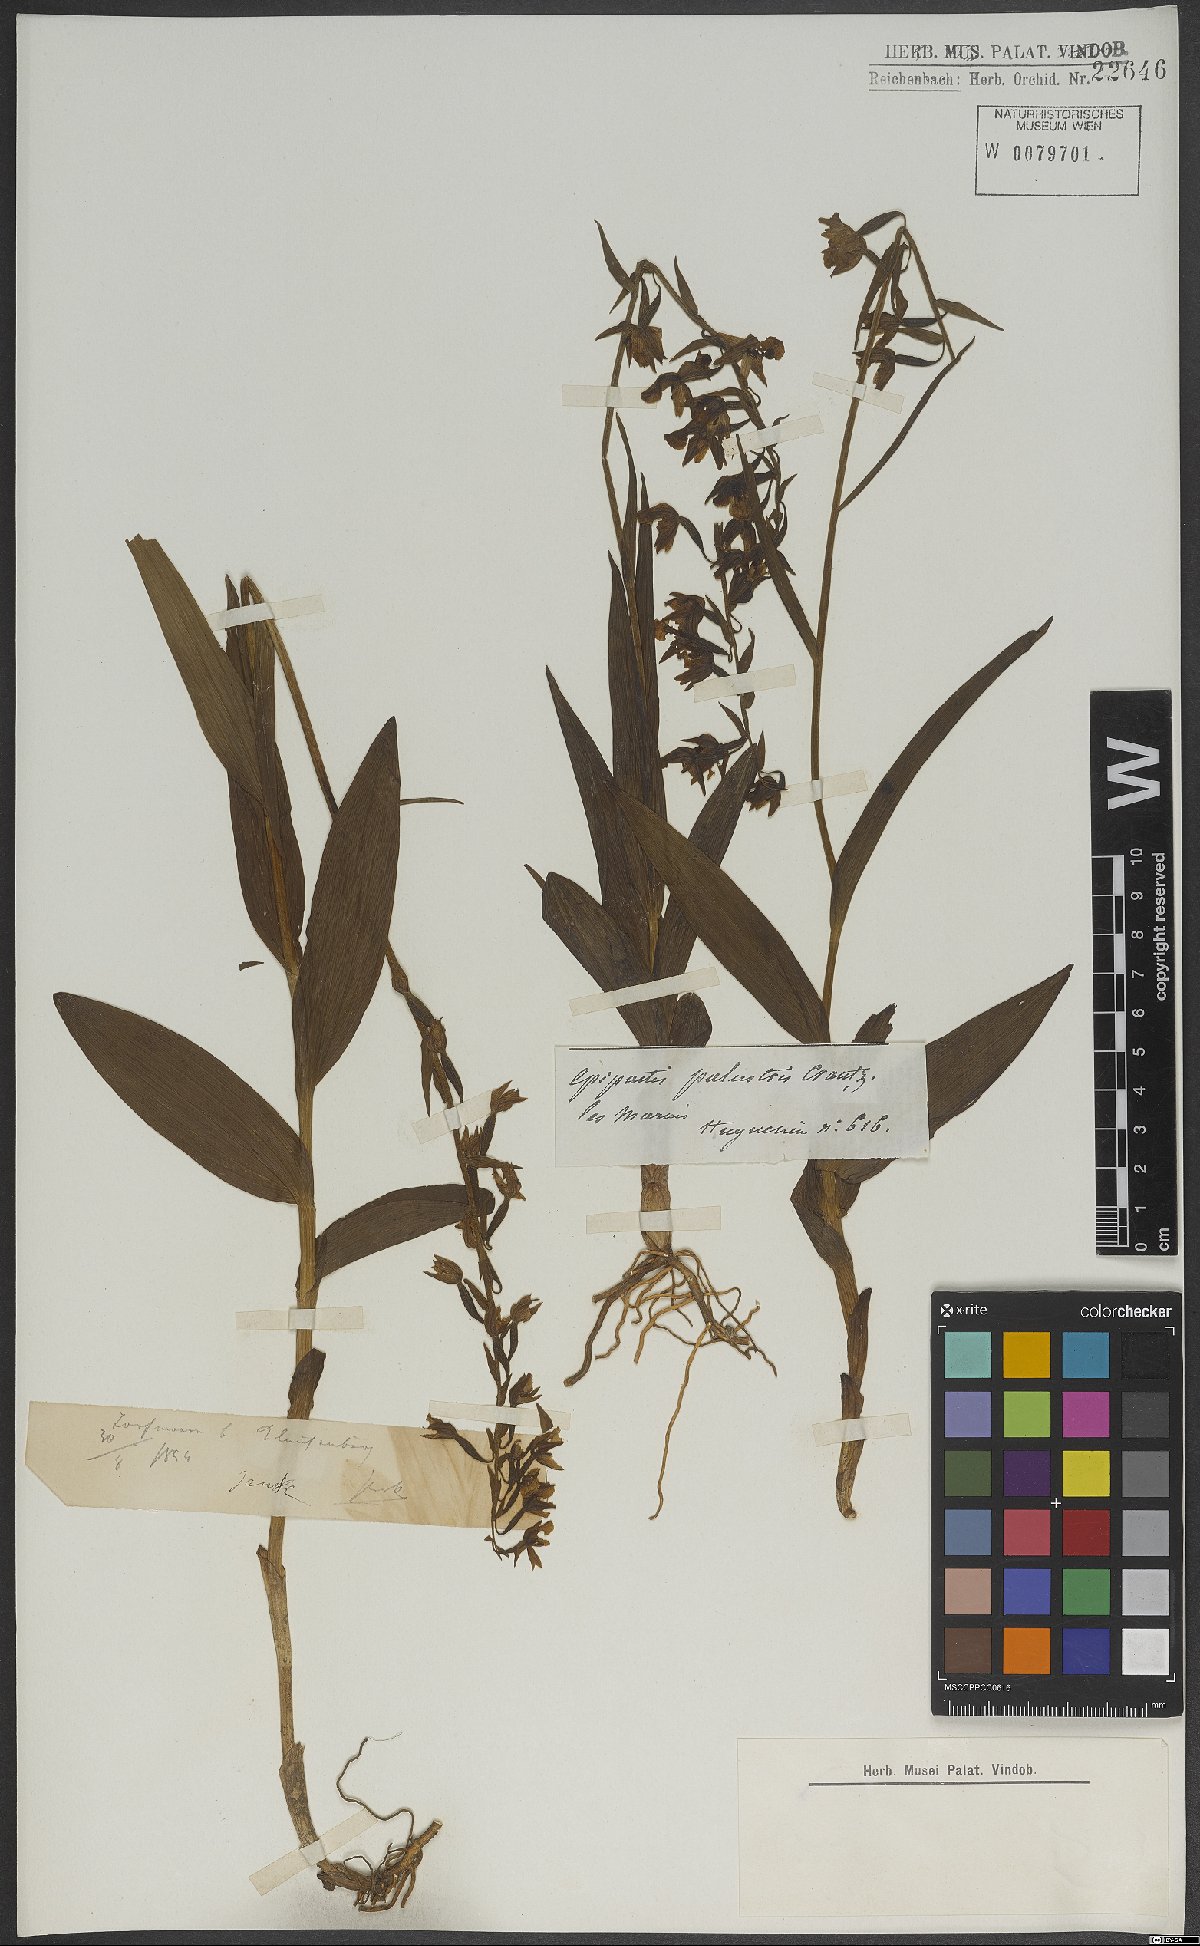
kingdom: Plantae
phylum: Tracheophyta
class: Liliopsida
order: Asparagales
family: Orchidaceae
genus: Epipactis
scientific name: Epipactis palustris
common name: Marsh helleborine
